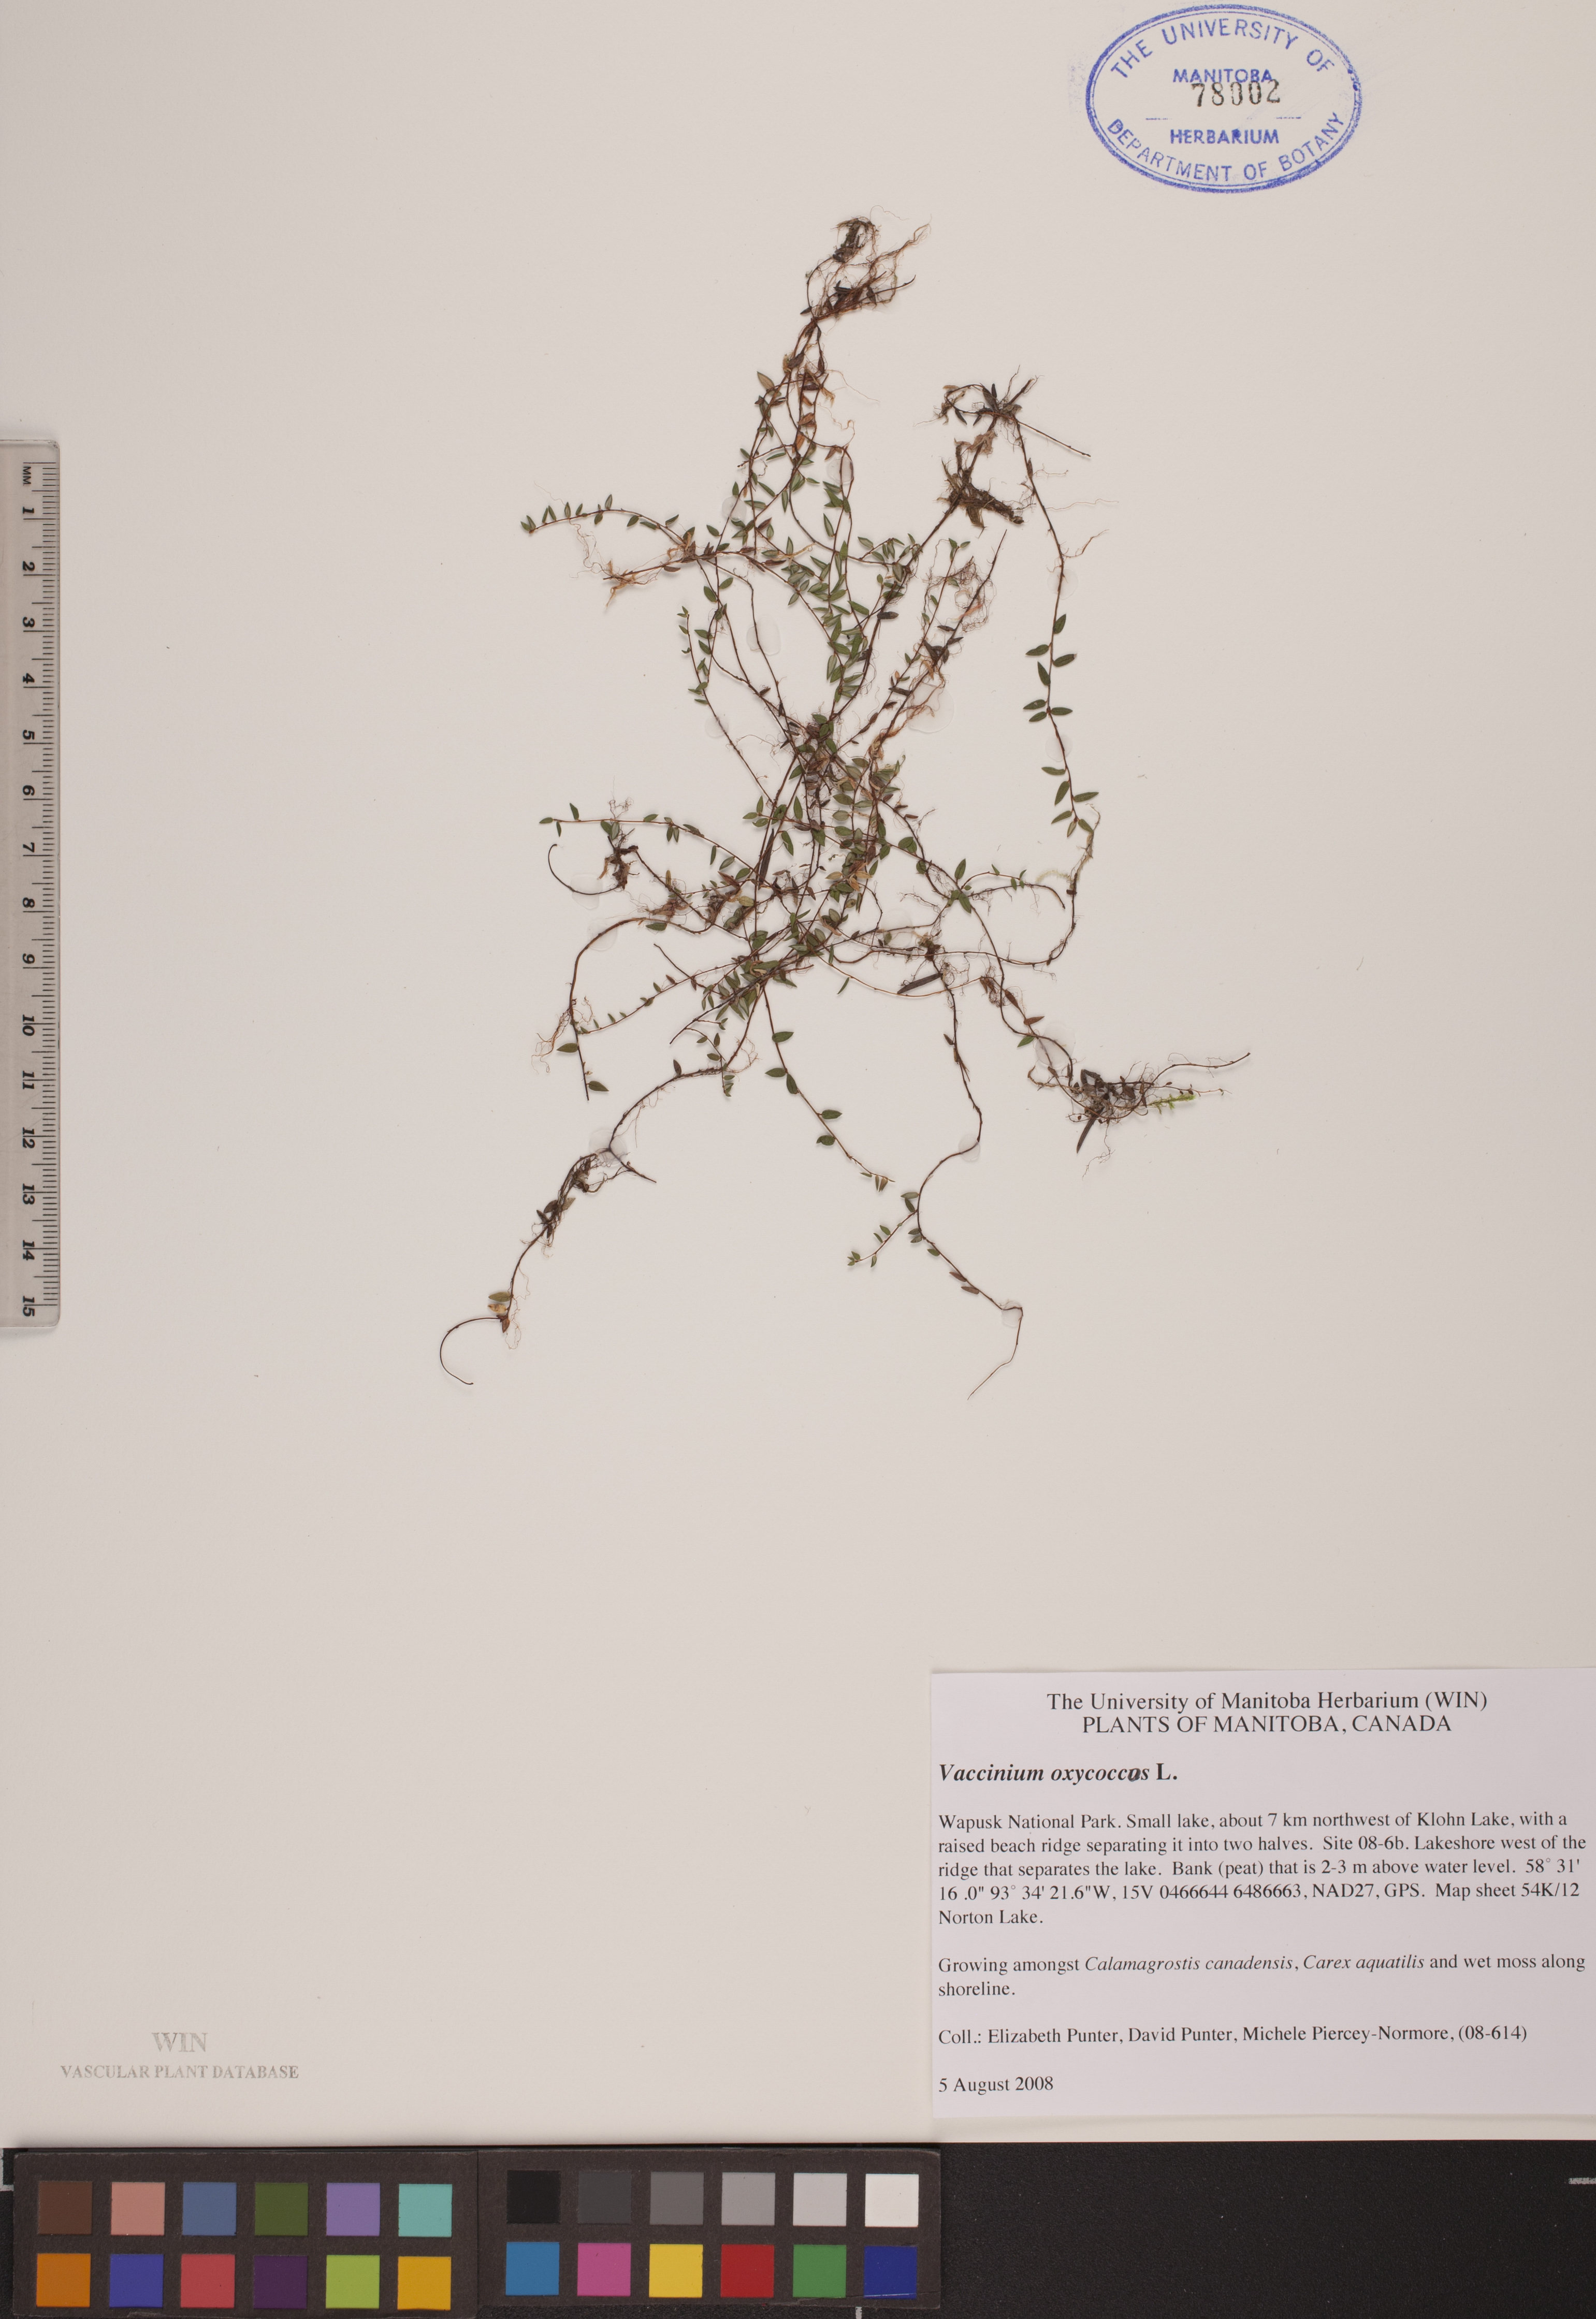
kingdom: Plantae
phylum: Tracheophyta
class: Magnoliopsida
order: Ericales
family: Ericaceae
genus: Vaccinium
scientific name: Vaccinium oxycoccos
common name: Cranberry
